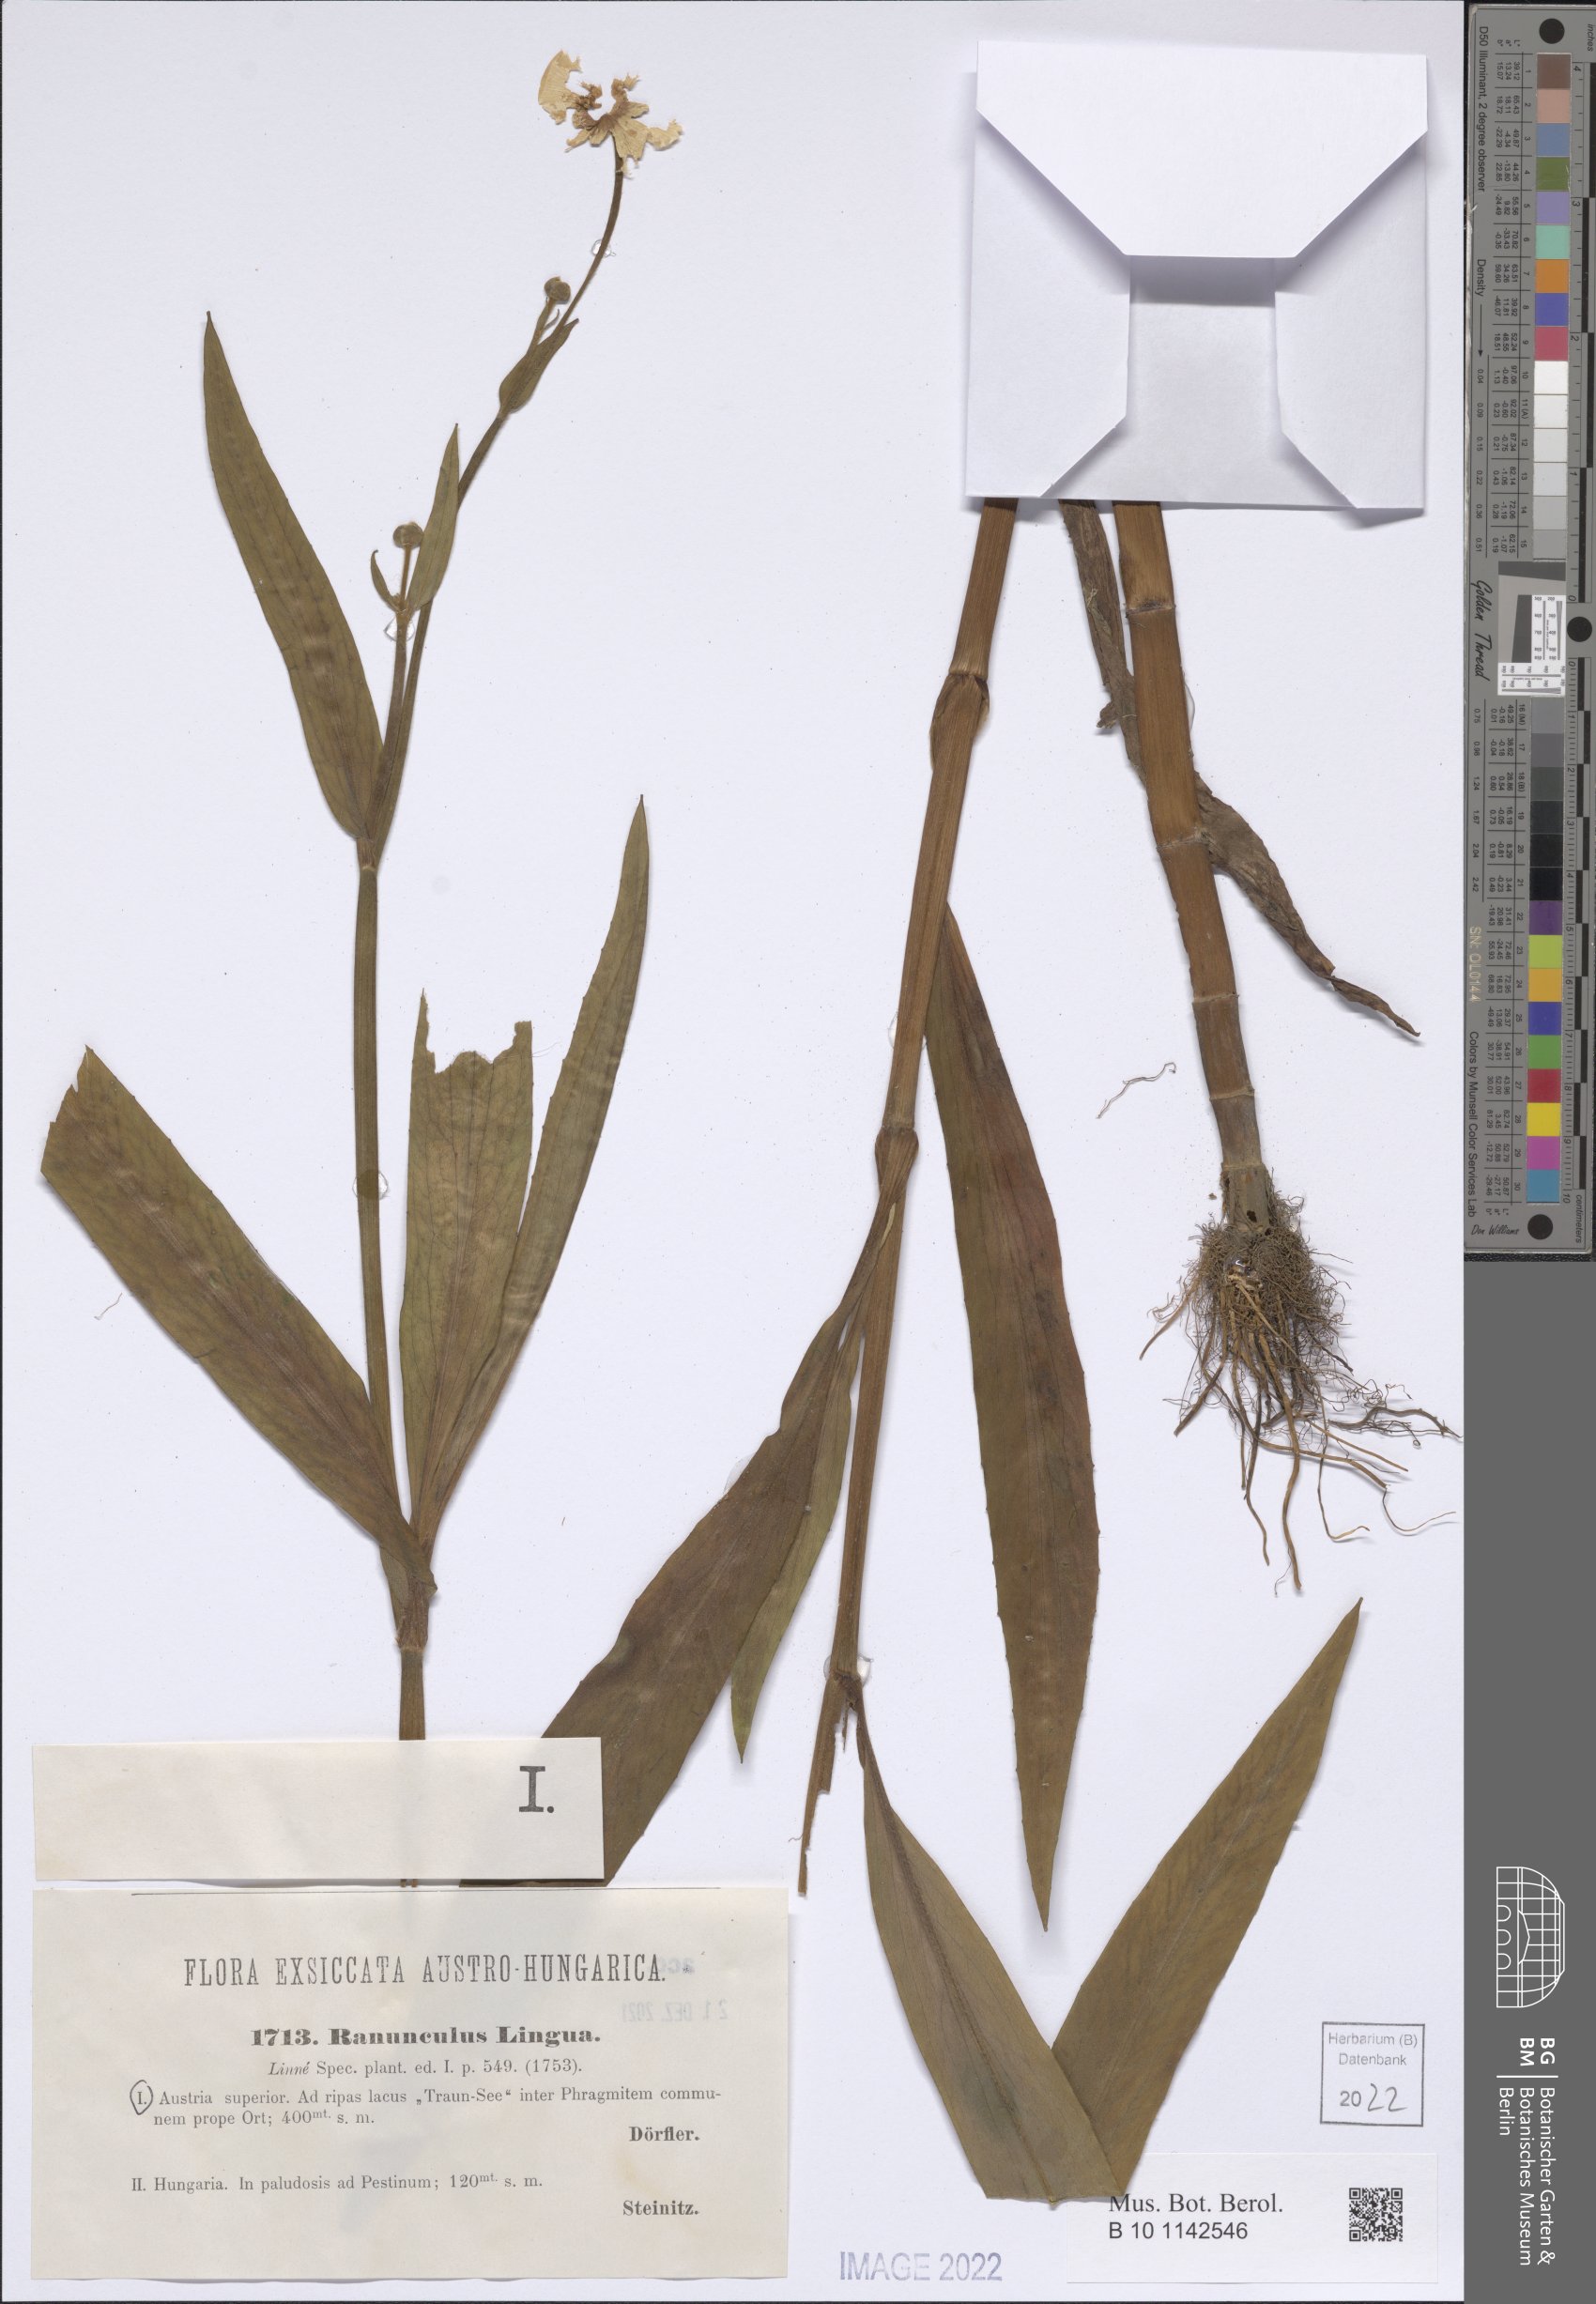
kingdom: Plantae
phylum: Tracheophyta
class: Magnoliopsida
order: Ranunculales
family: Ranunculaceae
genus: Ranunculus
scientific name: Ranunculus lingua
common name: Greater spearwort
